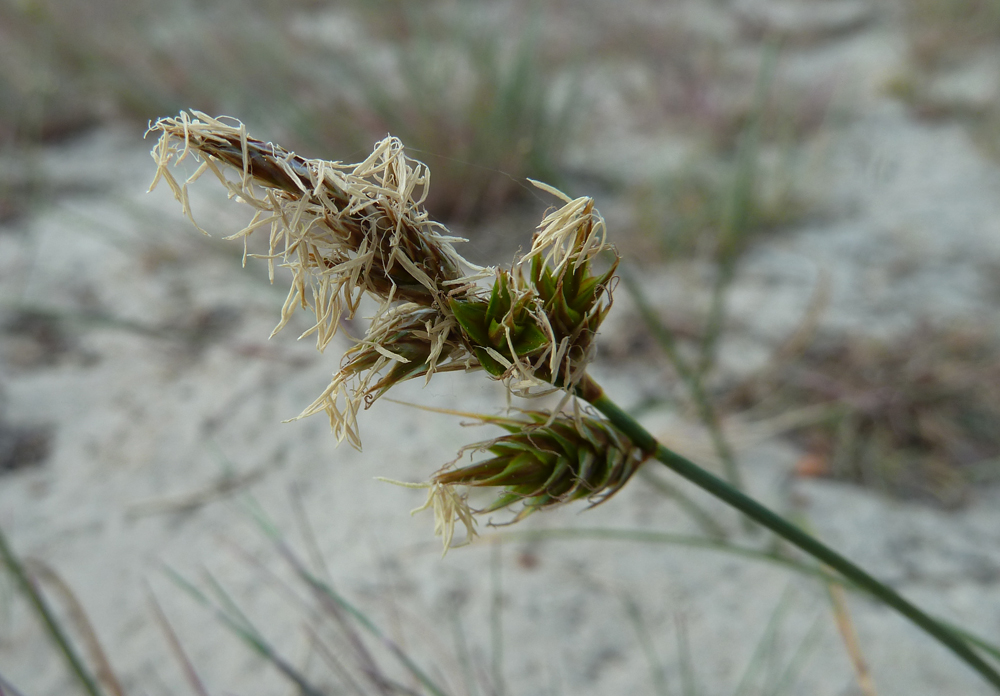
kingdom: Plantae
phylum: Tracheophyta
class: Liliopsida
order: Poales
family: Cyperaceae
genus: Carex
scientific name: Carex arenaria
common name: Sand sedge
